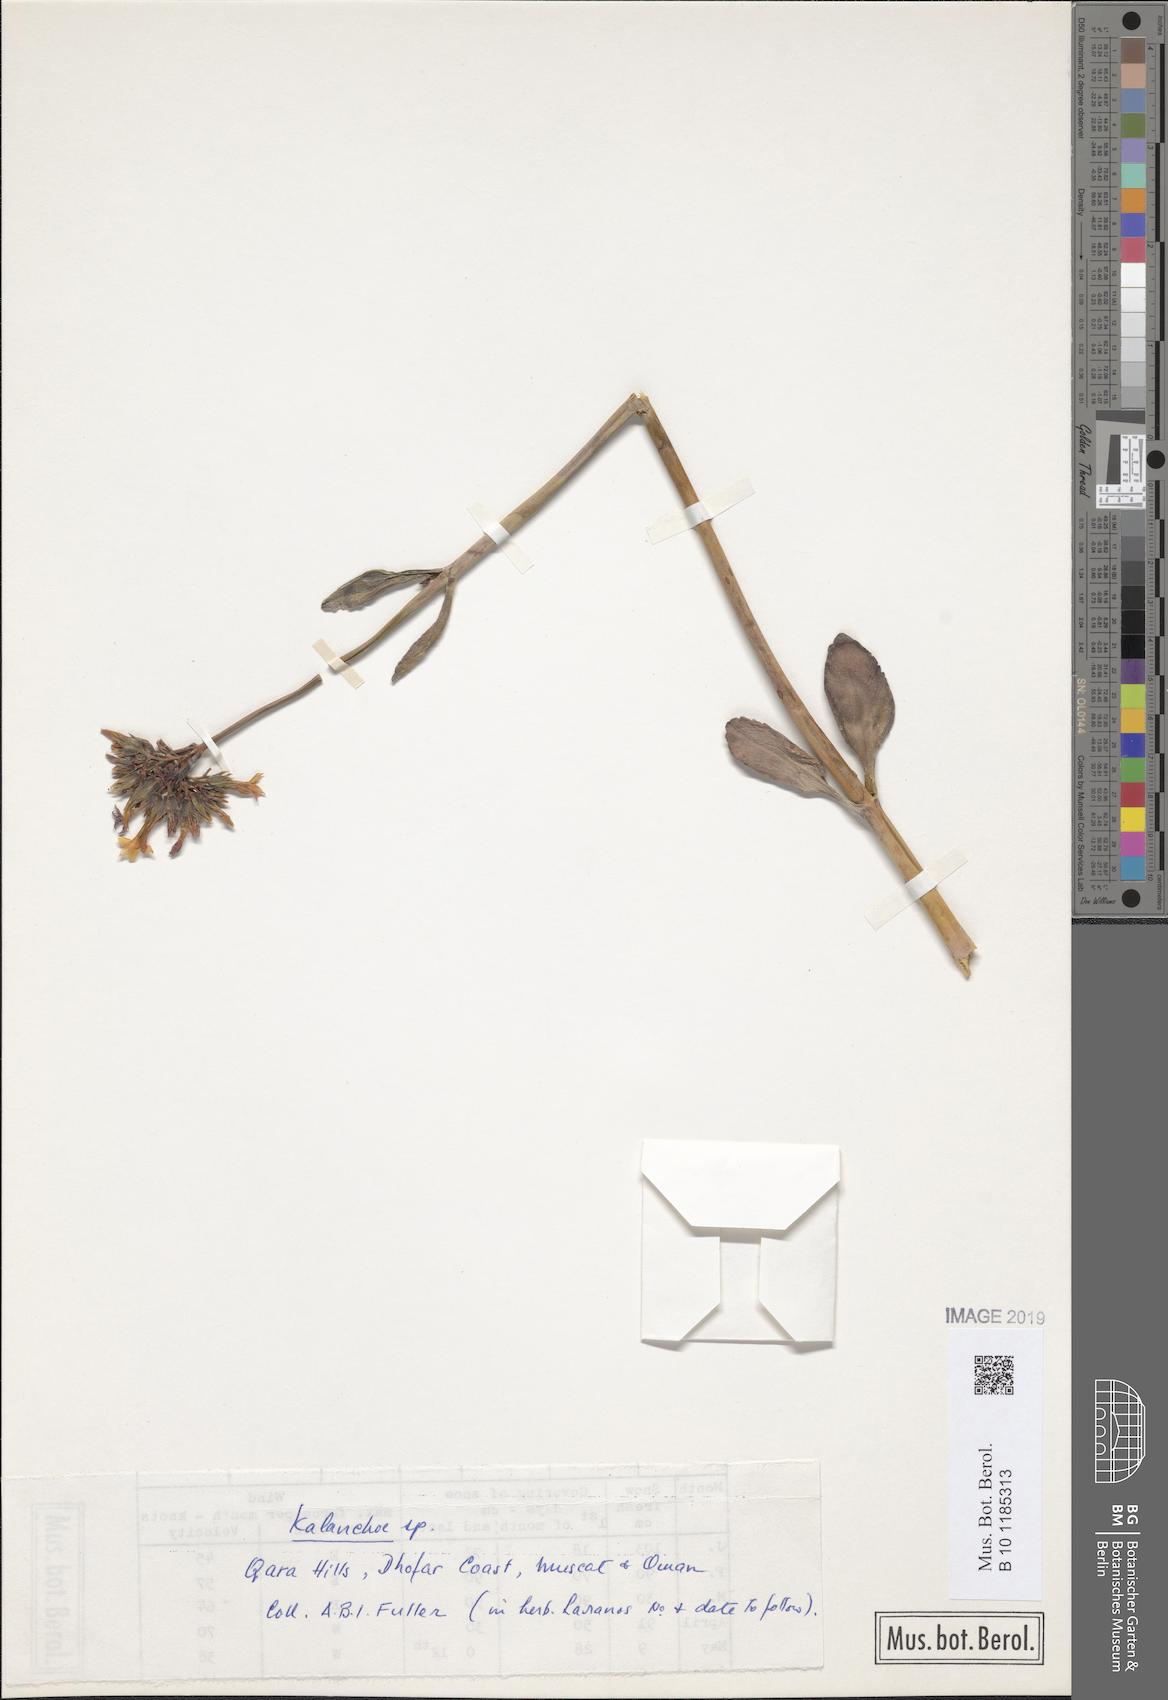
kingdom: Plantae
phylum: Tracheophyta
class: Magnoliopsida
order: Saxifragales
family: Crassulaceae
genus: Kalanchoe
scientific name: Kalanchoe
